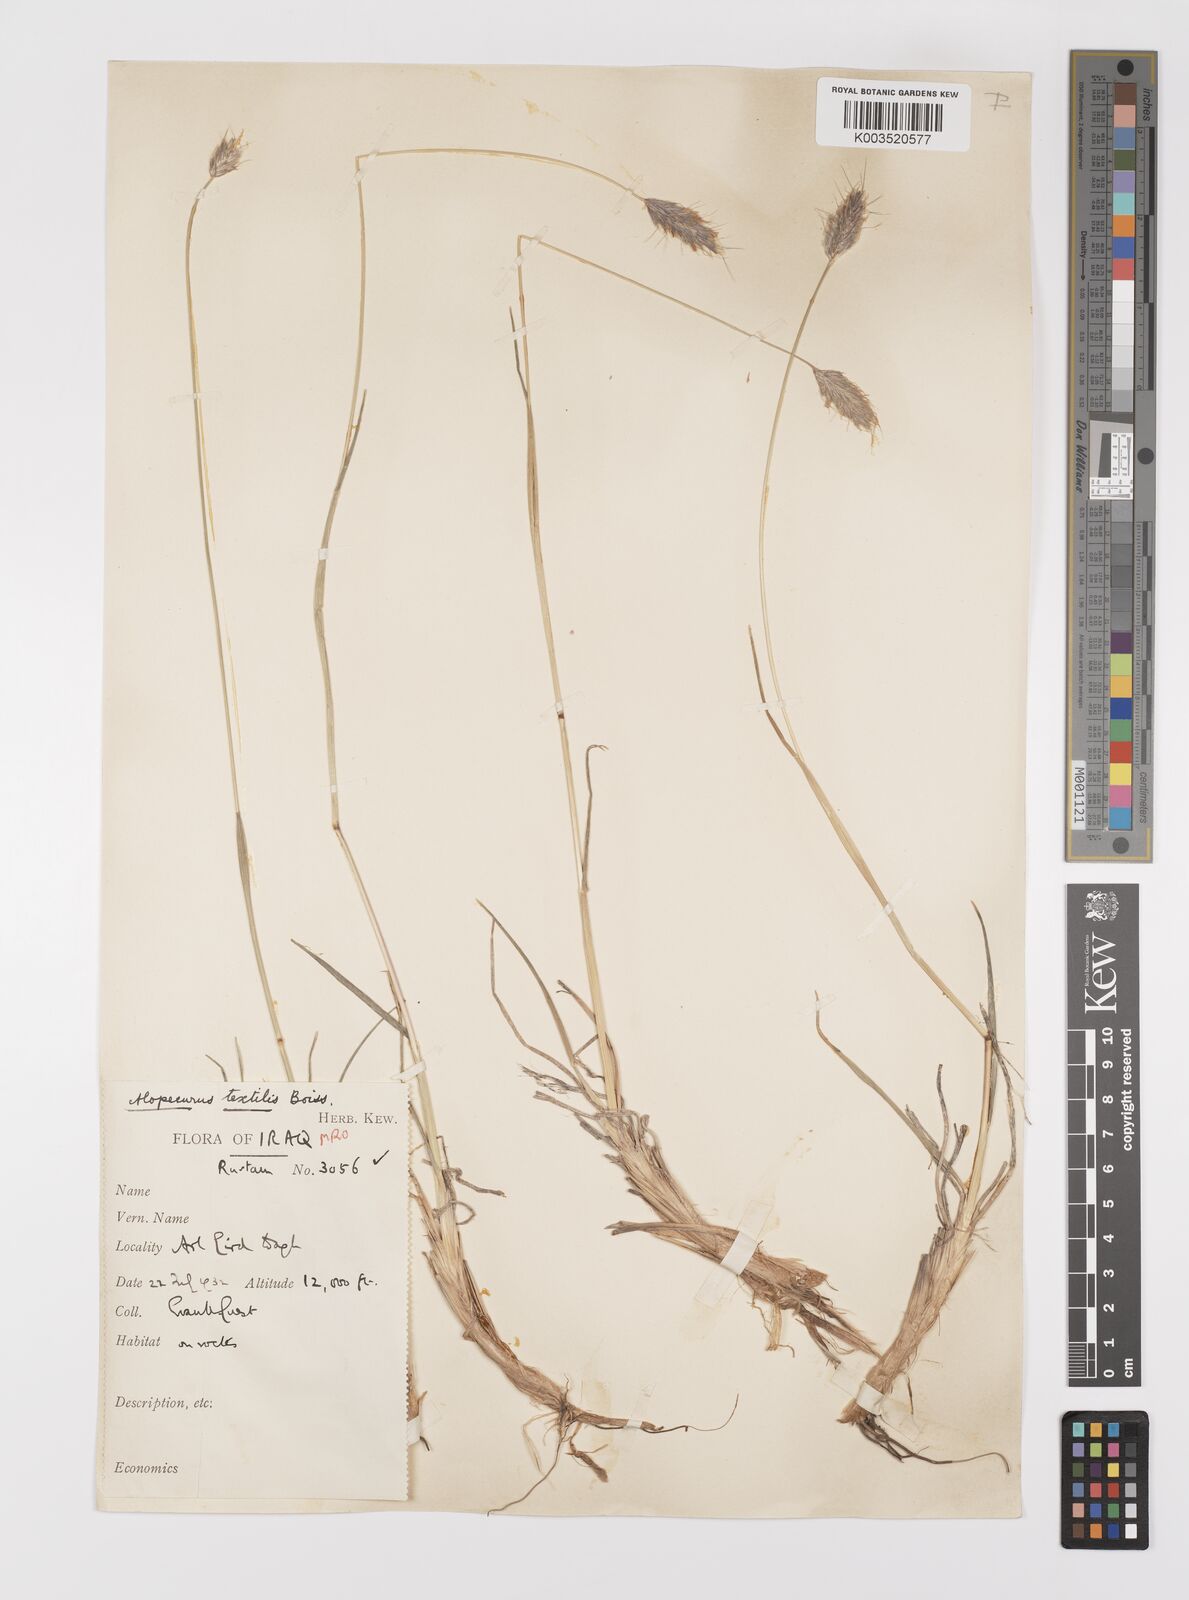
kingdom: Plantae
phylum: Tracheophyta
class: Liliopsida
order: Poales
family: Poaceae
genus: Alopecurus
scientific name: Alopecurus textilis
